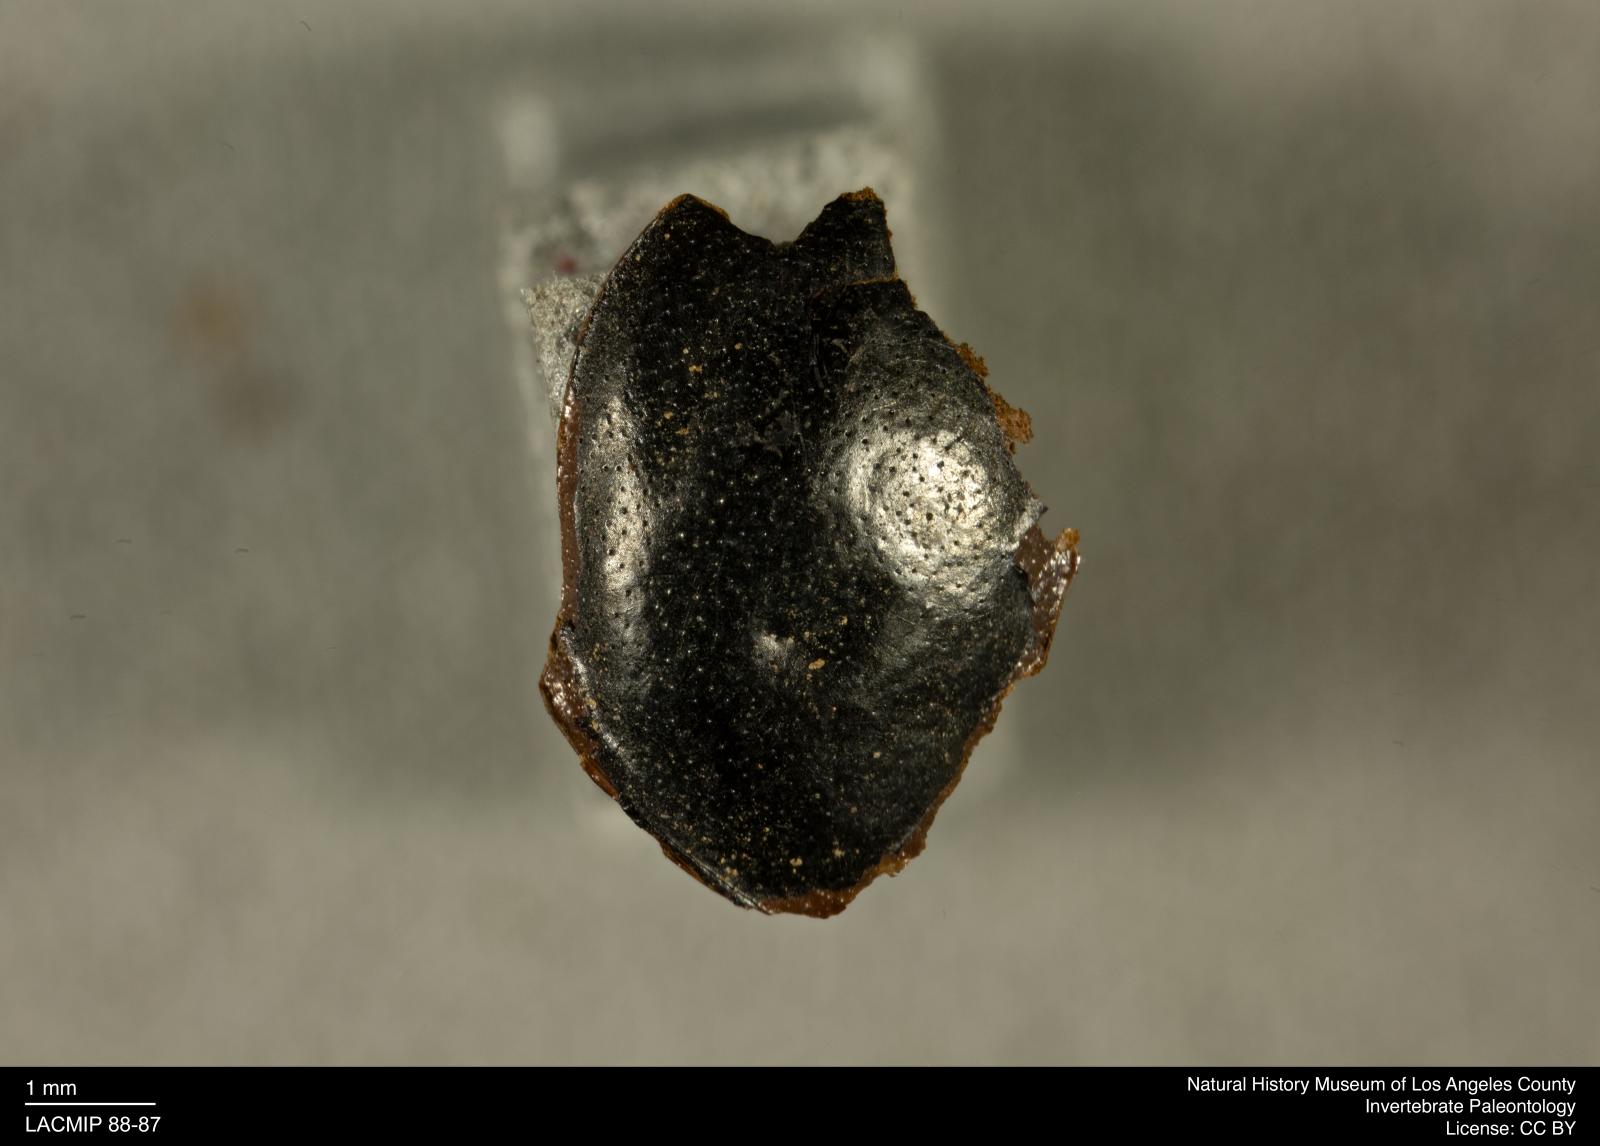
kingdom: Animalia
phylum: Arthropoda
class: Insecta
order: Coleoptera
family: Staphylinidae
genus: Nicrophorus
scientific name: Nicrophorus marginatus
